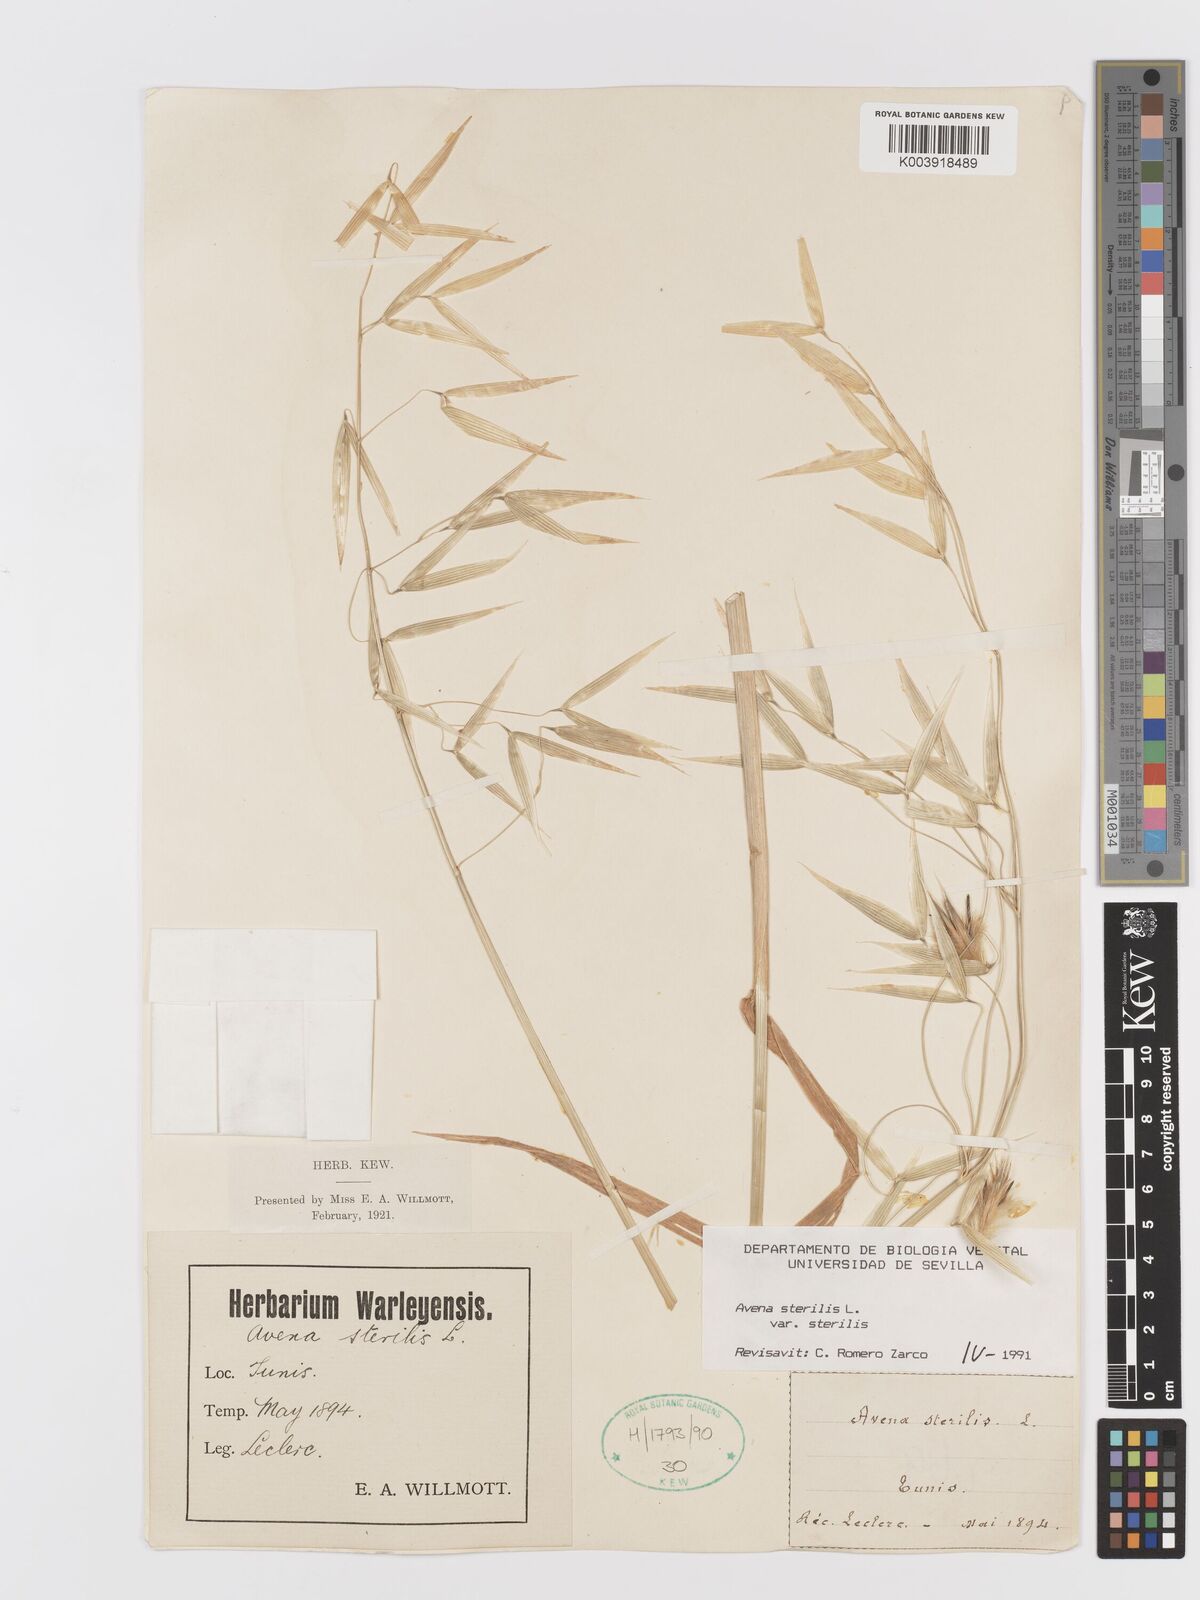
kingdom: Plantae
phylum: Tracheophyta
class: Liliopsida
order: Poales
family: Poaceae
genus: Avena
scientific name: Avena sterilis
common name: Animated oat
